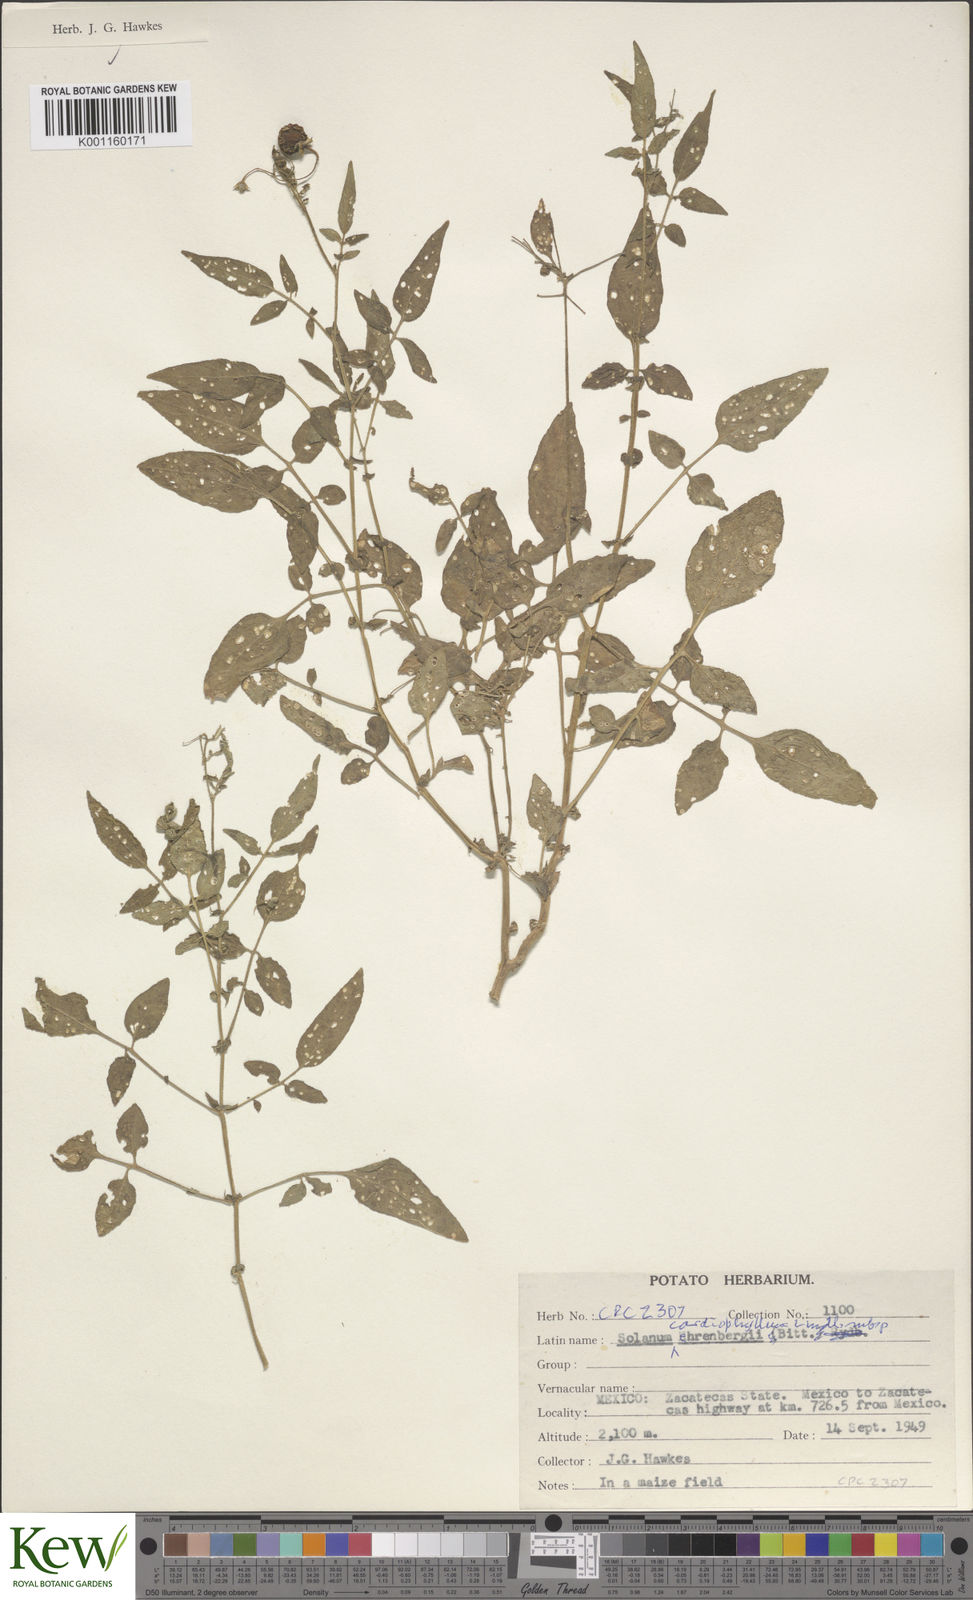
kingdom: Plantae
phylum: Tracheophyta
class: Magnoliopsida
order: Solanales
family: Solanaceae
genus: Solanum
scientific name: Solanum cardiophyllum
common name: Heartleaf horsenettle
